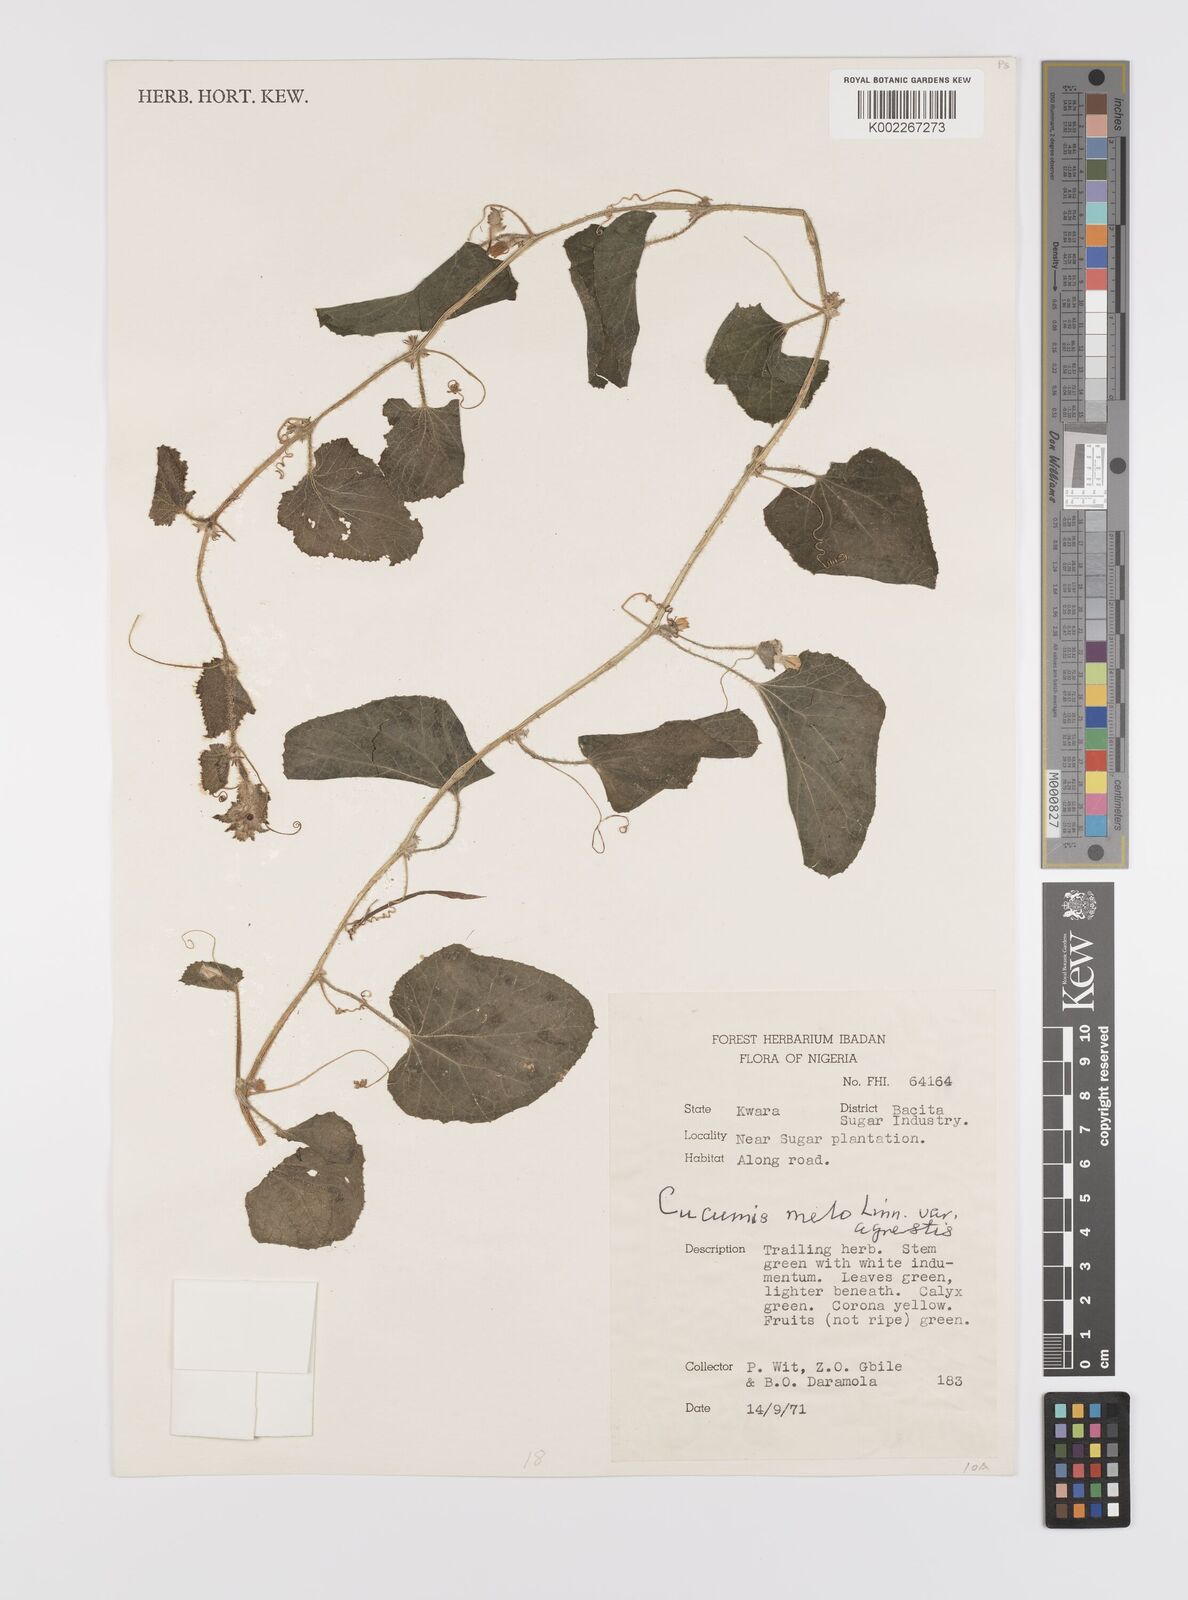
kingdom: Plantae
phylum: Tracheophyta
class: Magnoliopsida
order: Cucurbitales
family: Cucurbitaceae
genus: Cucumis
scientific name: Cucumis melo
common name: Melon
